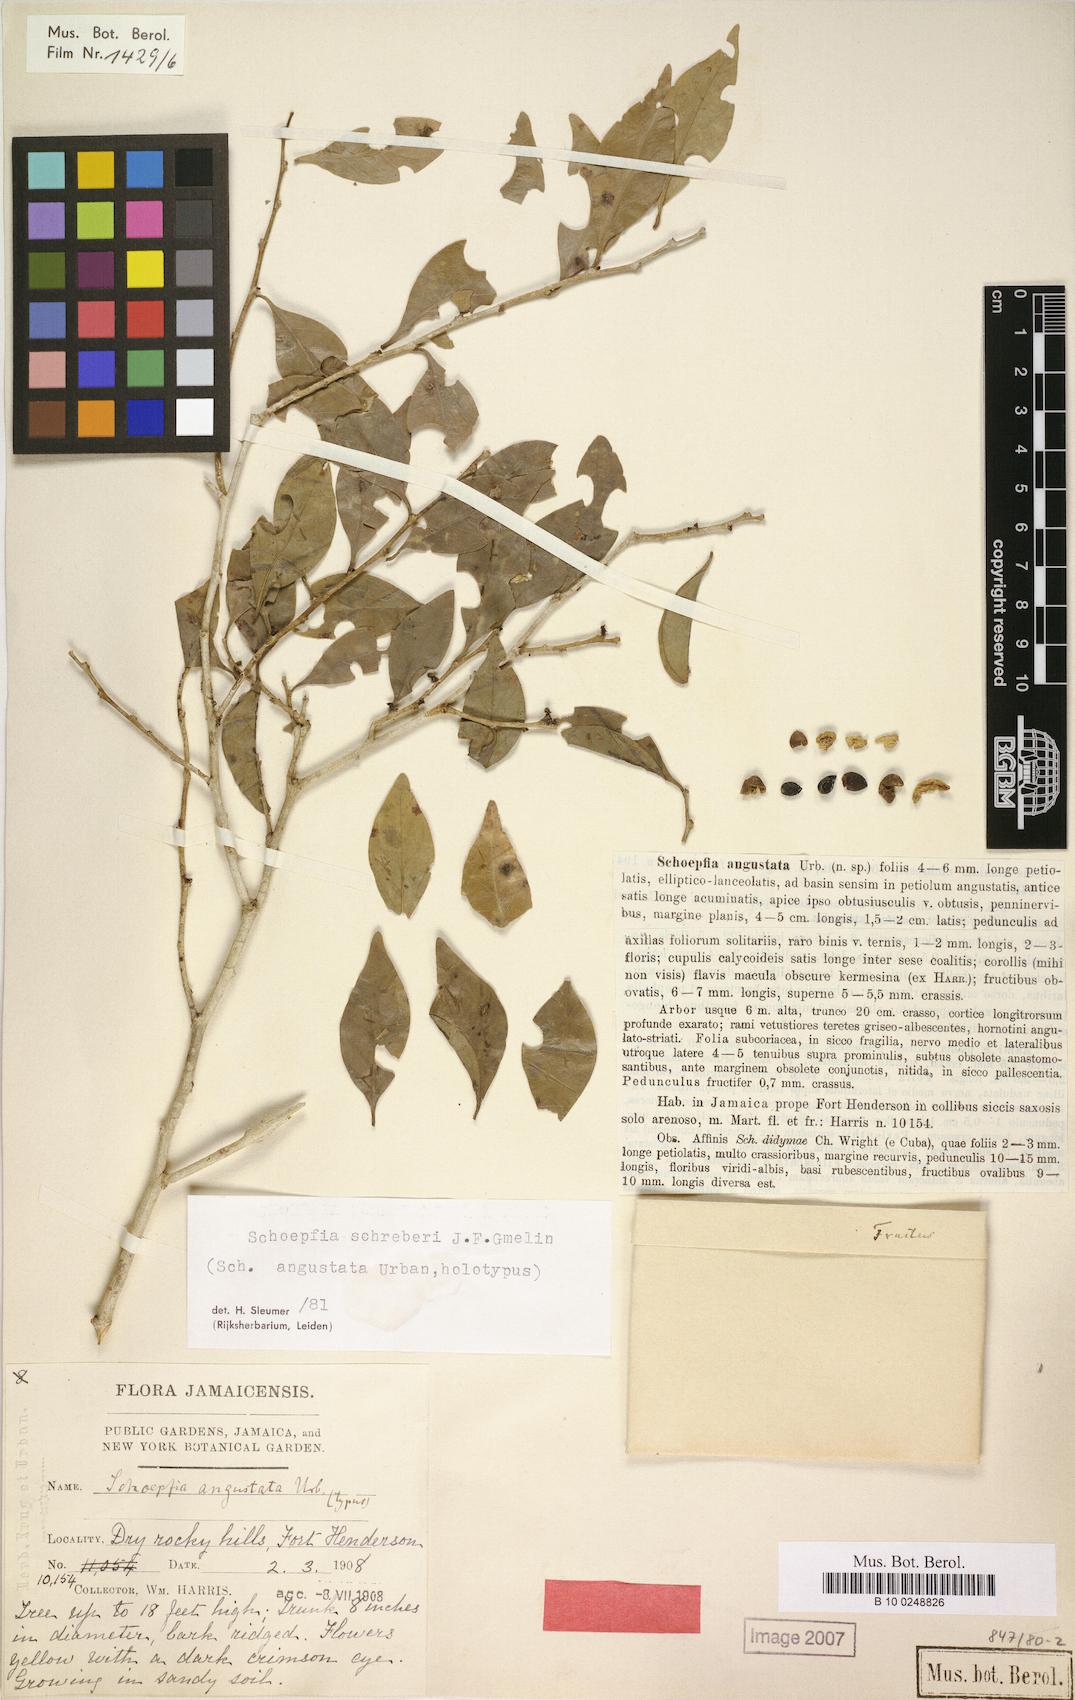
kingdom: Plantae
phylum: Tracheophyta
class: Magnoliopsida
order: Santalales
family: Schoepfiaceae
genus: Schoepfia
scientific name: Schoepfia schreberi
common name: Gulf graytwig
